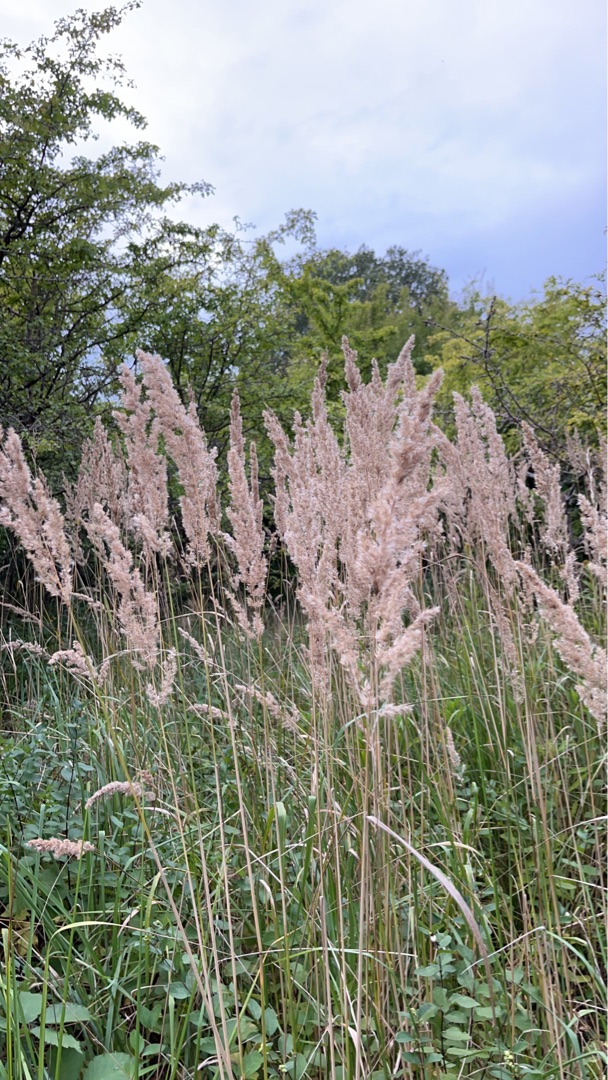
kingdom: Plantae
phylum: Tracheophyta
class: Liliopsida
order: Poales
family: Poaceae
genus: Calamagrostis
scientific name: Calamagrostis epigejos
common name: Bjerg-rørhvene
